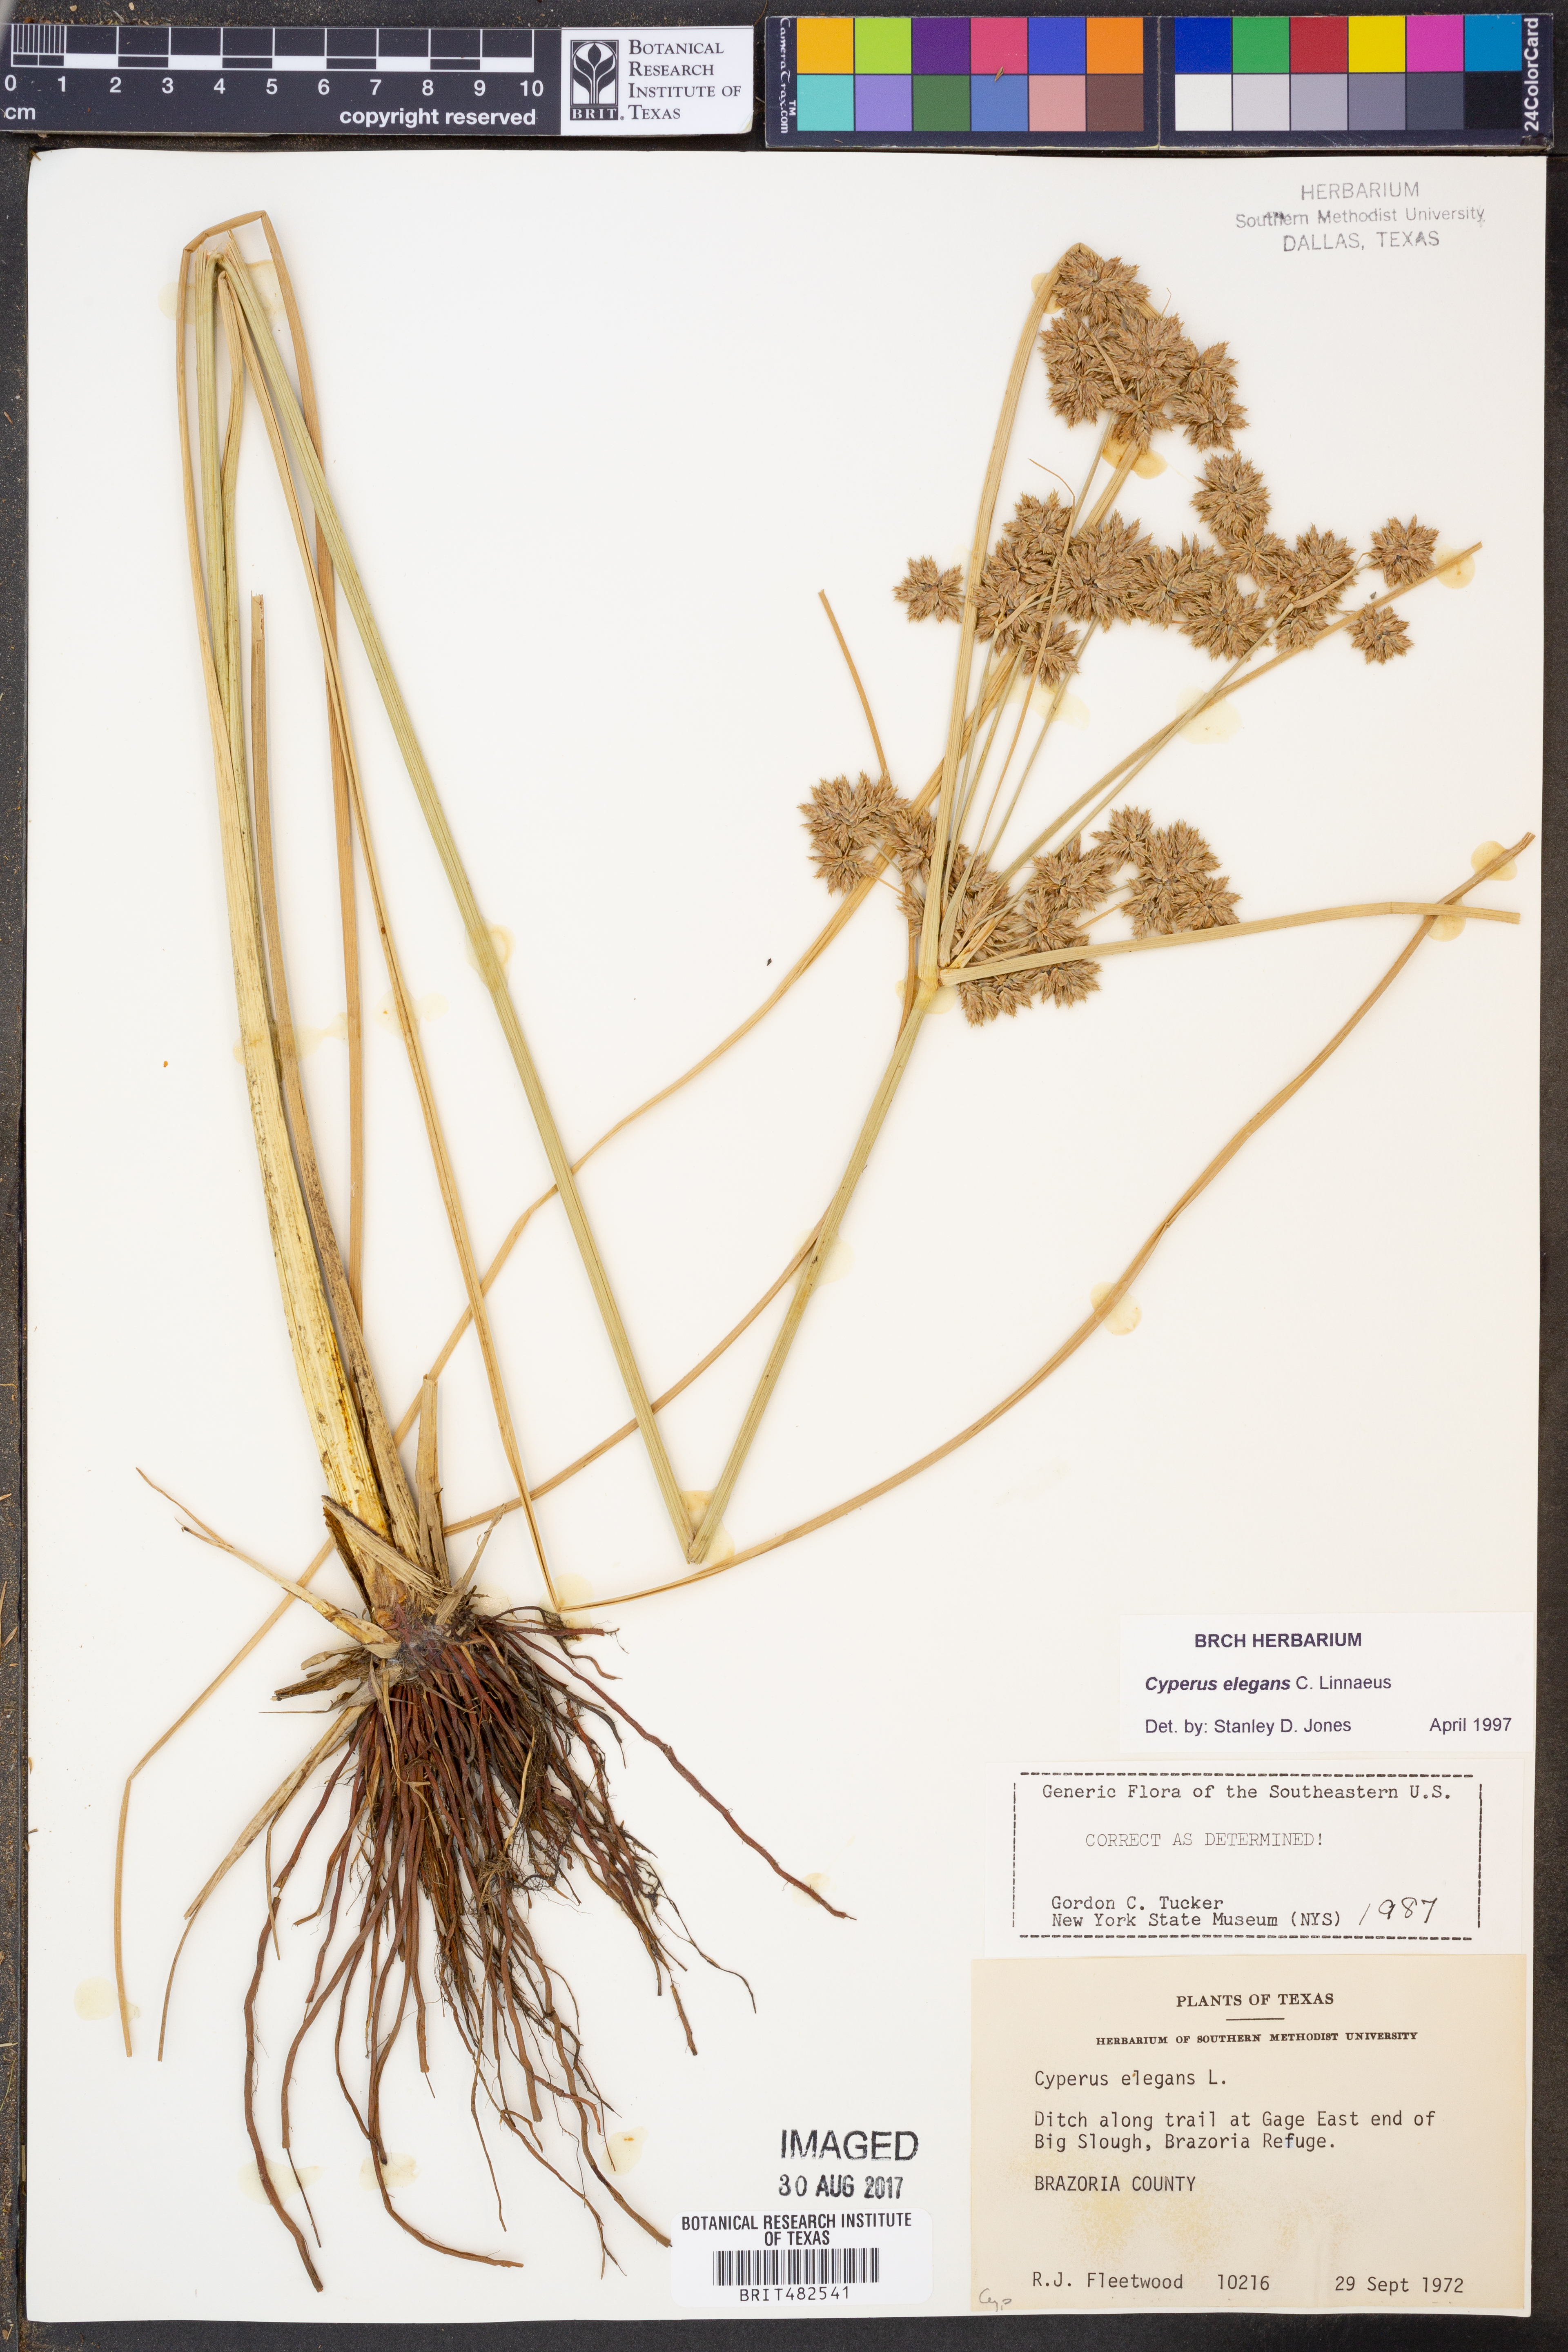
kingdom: Plantae
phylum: Tracheophyta
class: Liliopsida
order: Poales
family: Cyperaceae
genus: Cyperus
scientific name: Cyperus elegans
